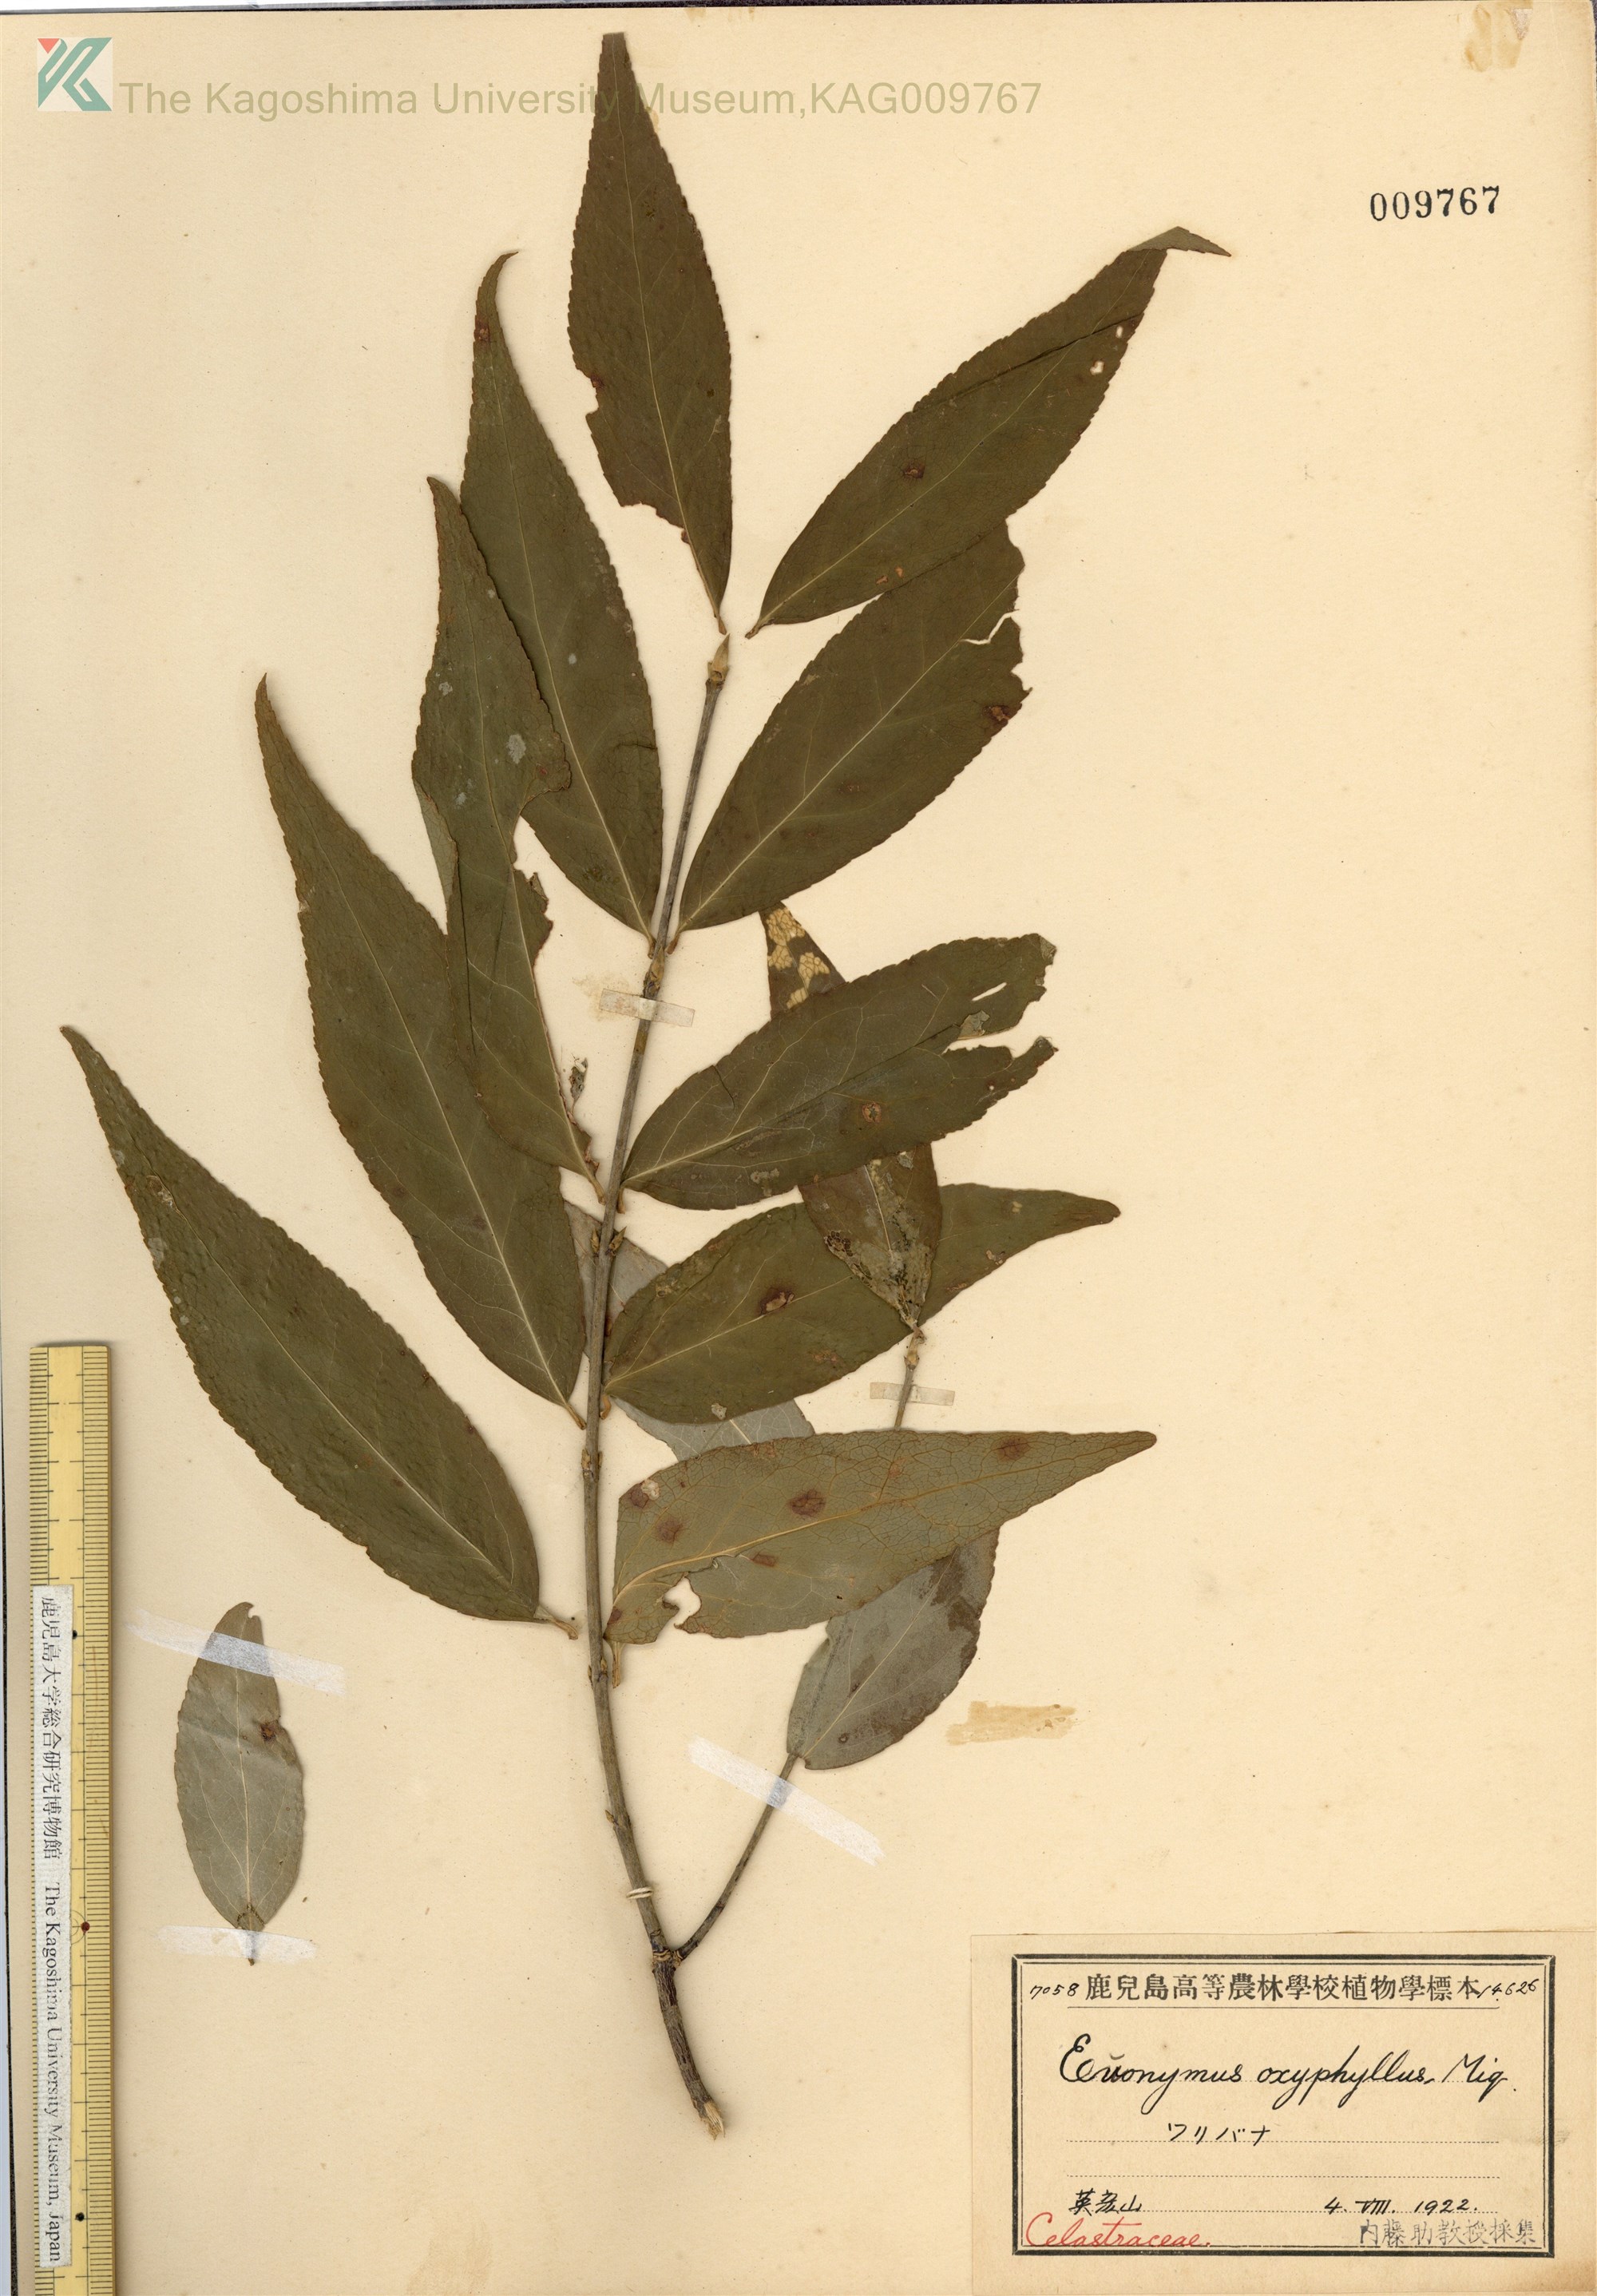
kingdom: Plantae
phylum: Tracheophyta
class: Magnoliopsida
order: Celastrales
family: Celastraceae
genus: Euonymus
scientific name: Euonymus oxyphyllus
